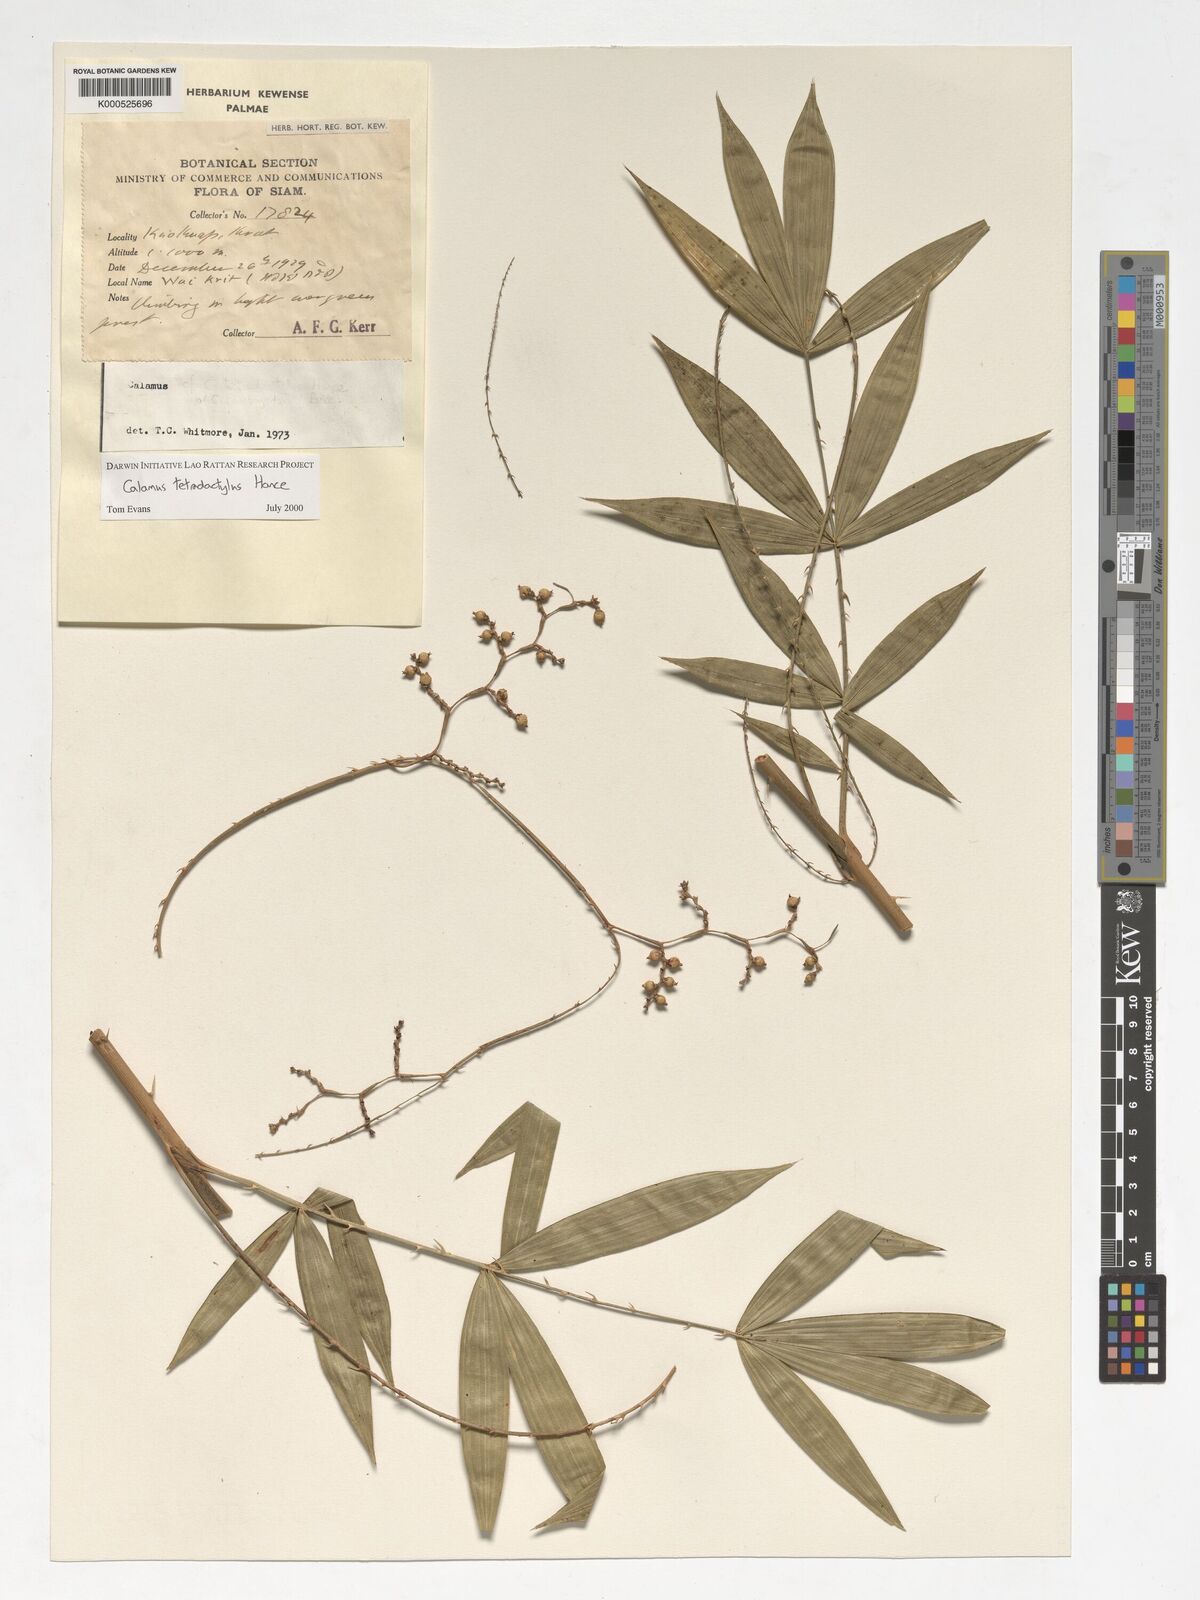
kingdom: Plantae
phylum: Tracheophyta
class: Liliopsida
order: Arecales
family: Arecaceae
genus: Calamus
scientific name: Calamus tetradactylus
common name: White rattan
